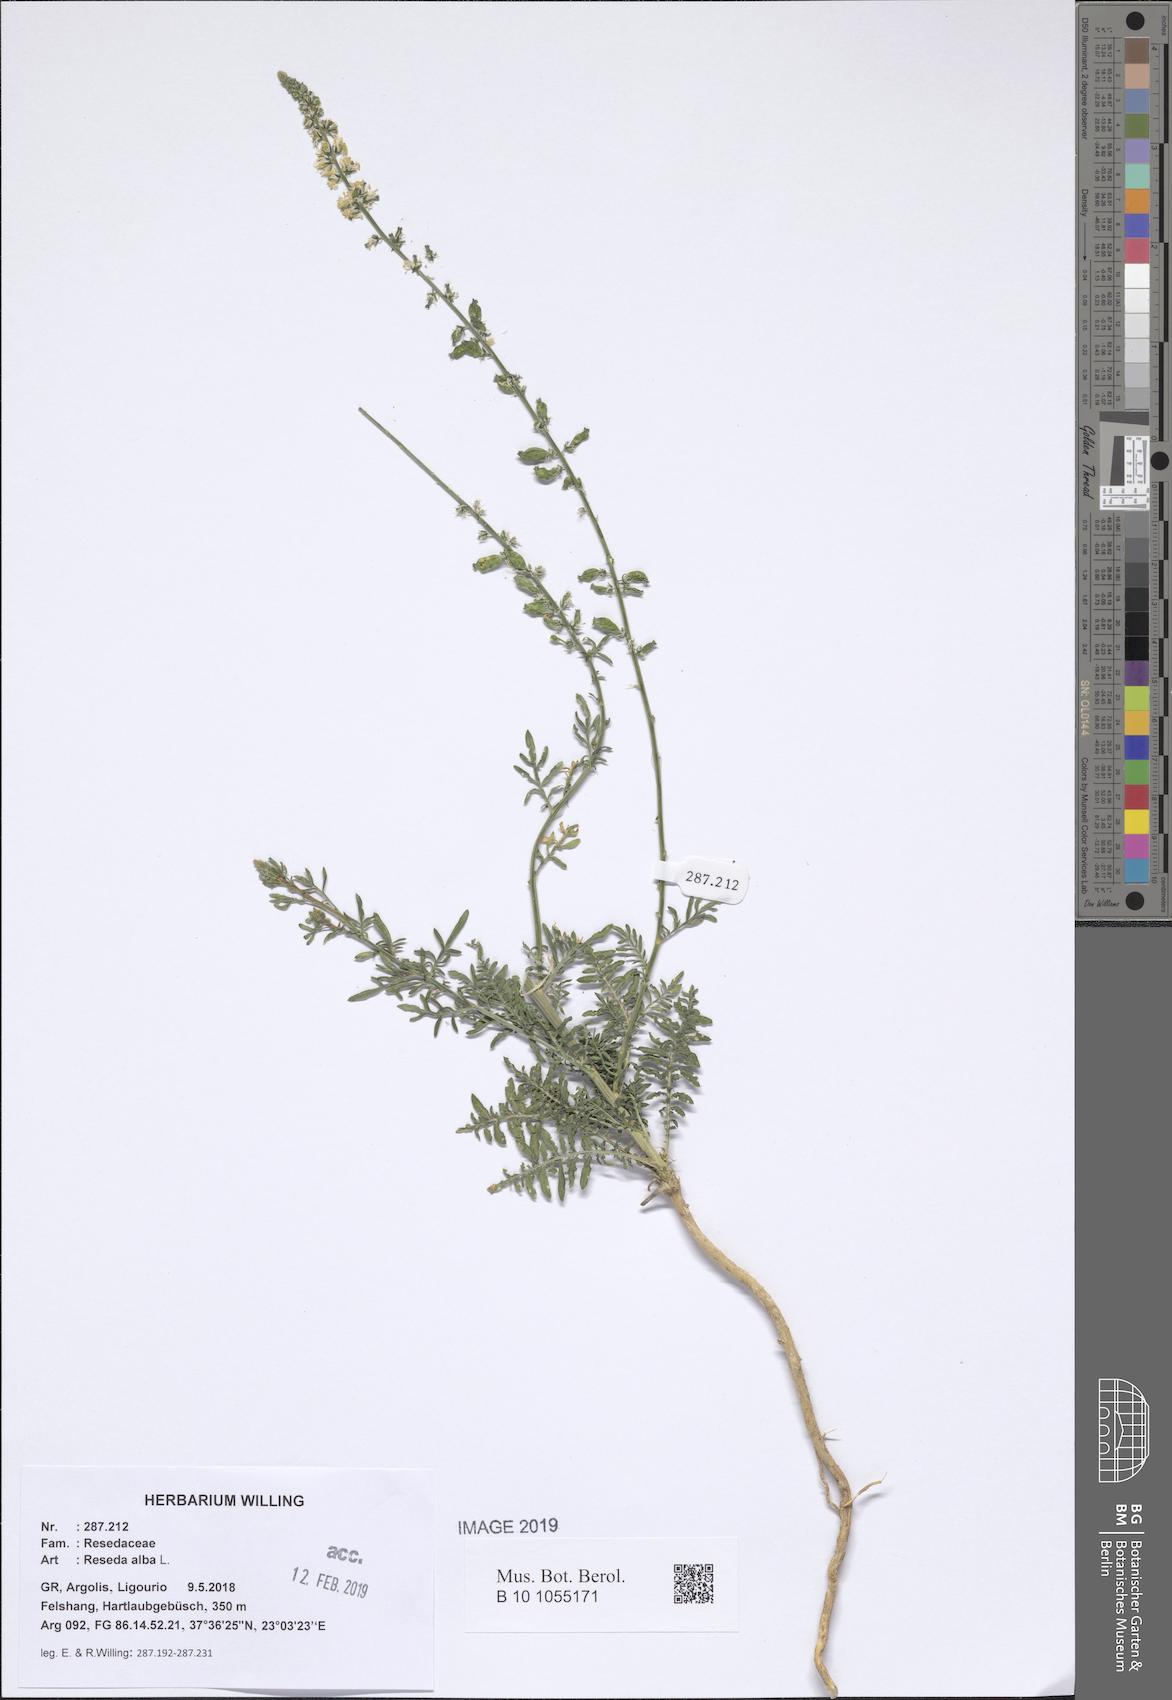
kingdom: Plantae
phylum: Tracheophyta
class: Magnoliopsida
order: Brassicales
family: Resedaceae
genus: Reseda
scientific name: Reseda alba
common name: White mignonette
